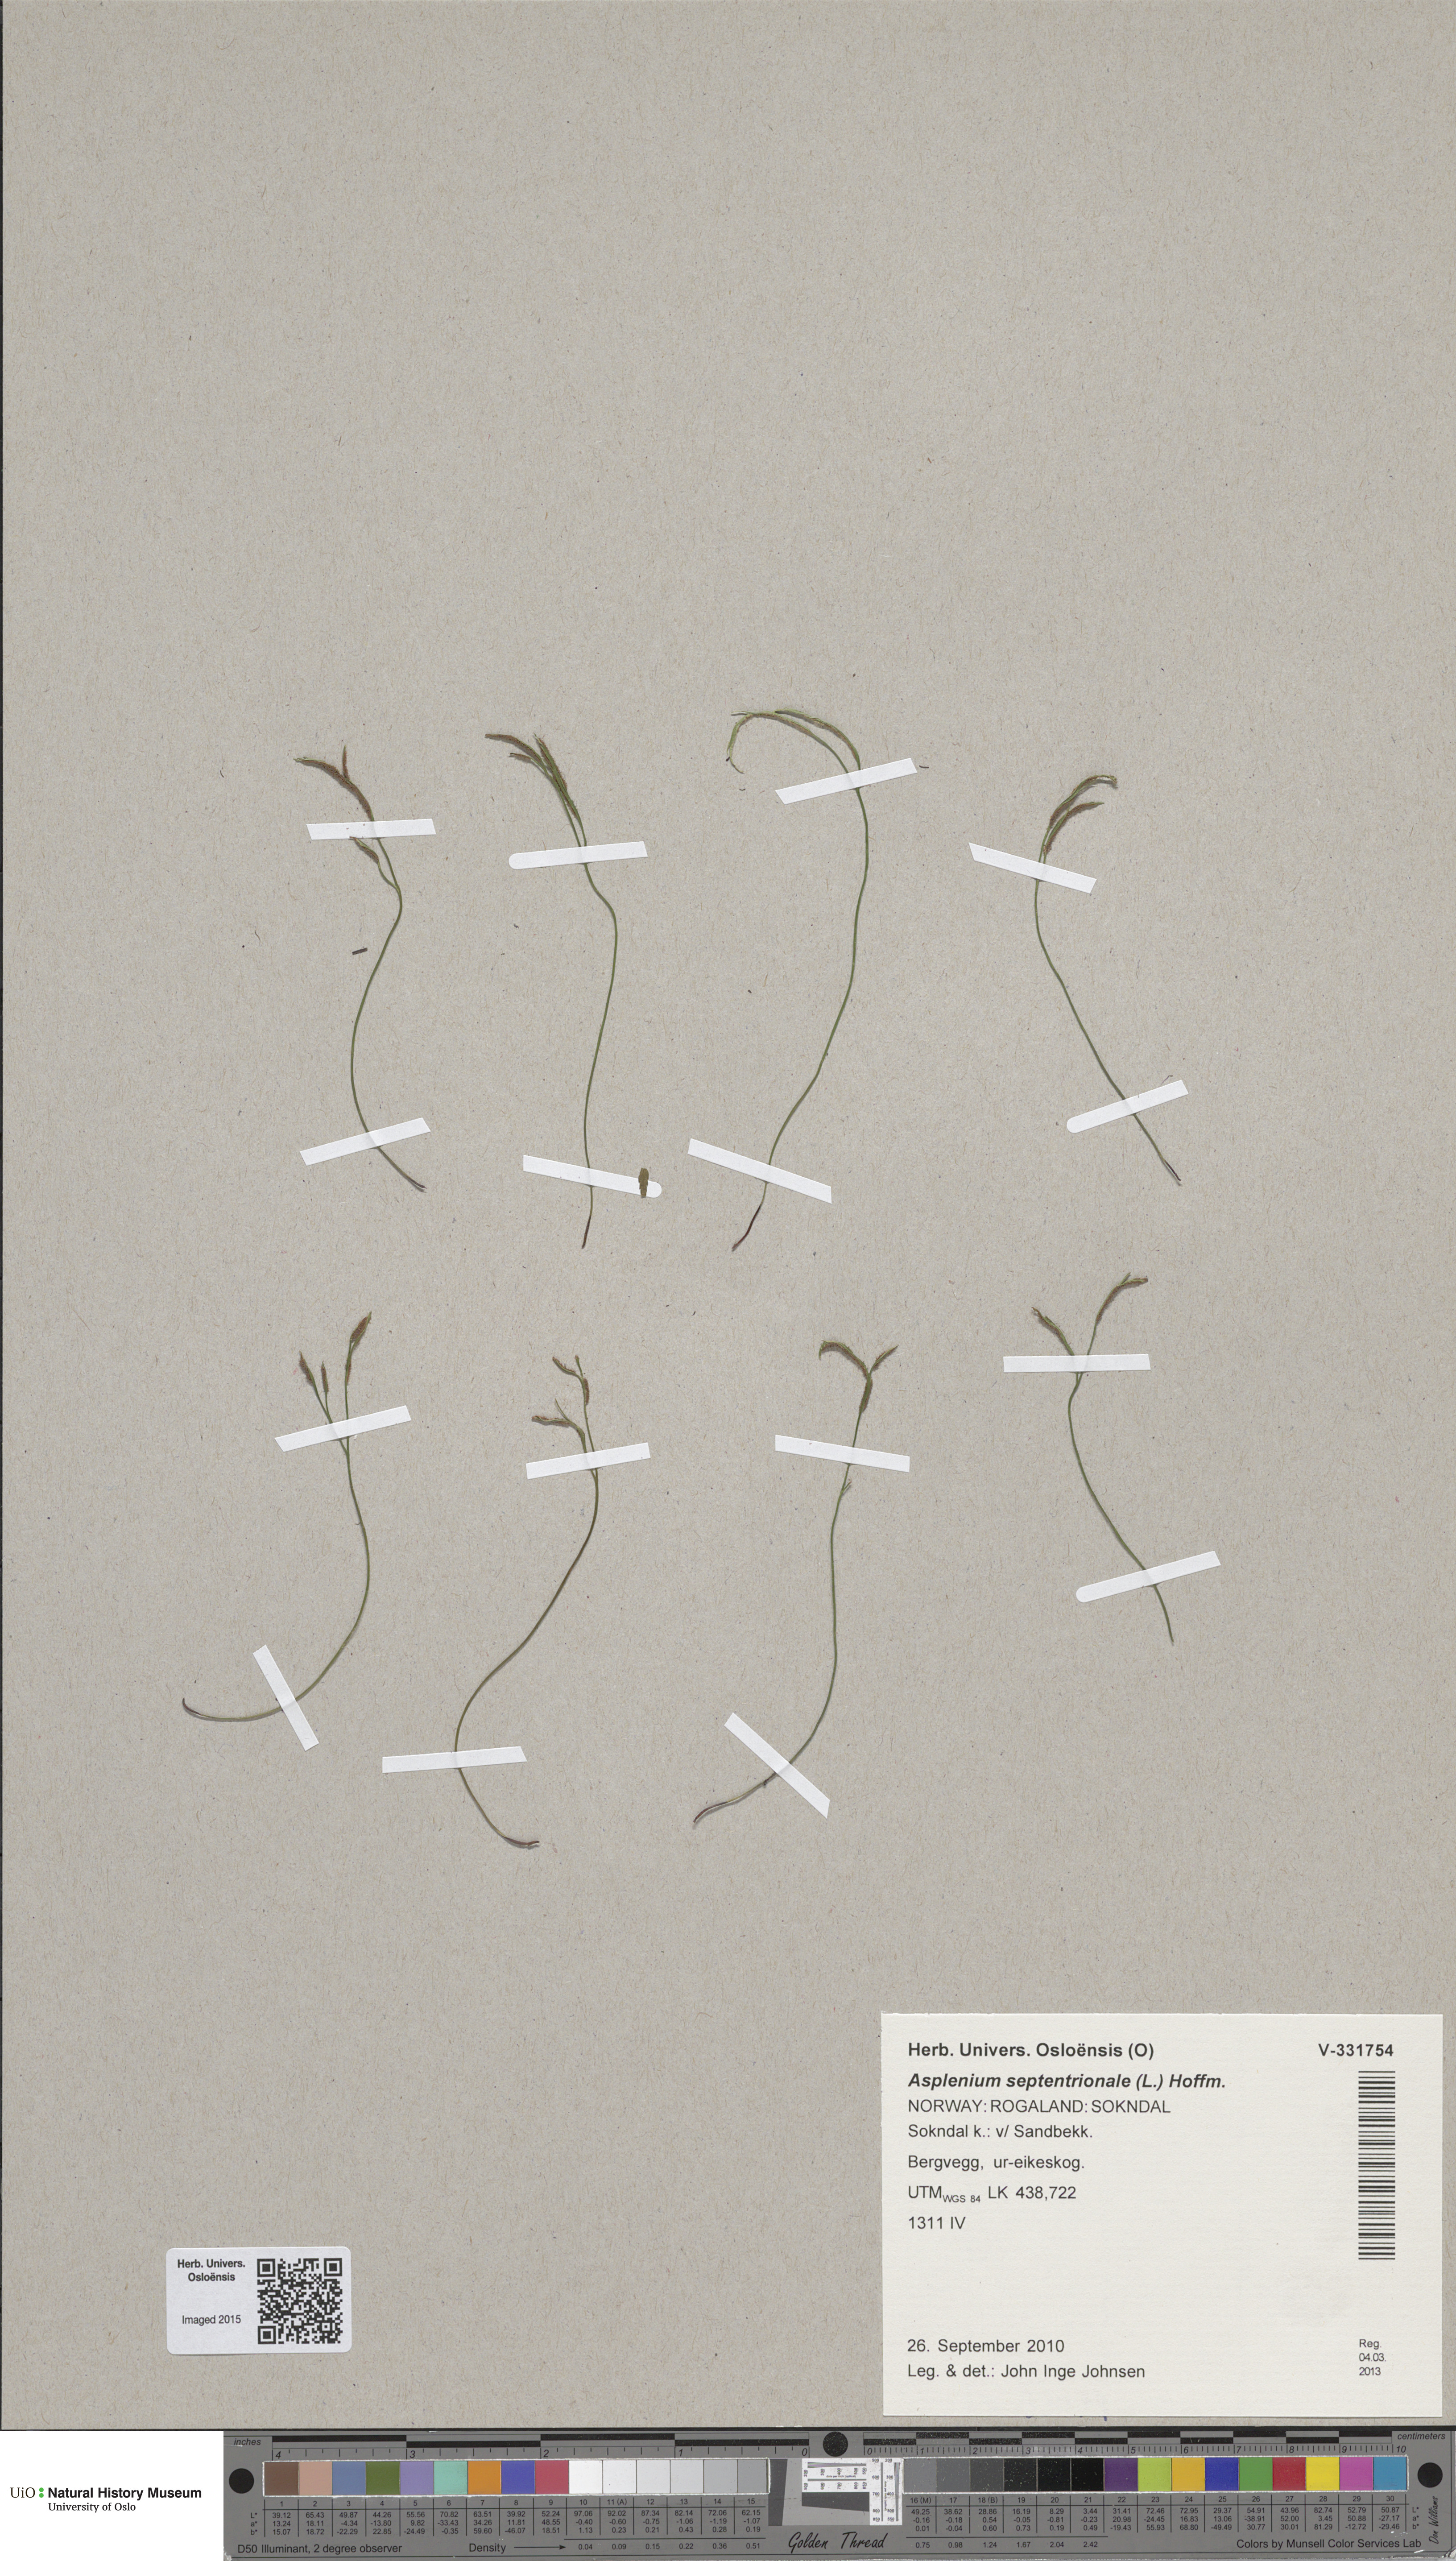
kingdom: Plantae
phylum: Tracheophyta
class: Polypodiopsida
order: Polypodiales
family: Aspleniaceae
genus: Asplenium
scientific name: Asplenium septentrionale
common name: Forked spleenwort
